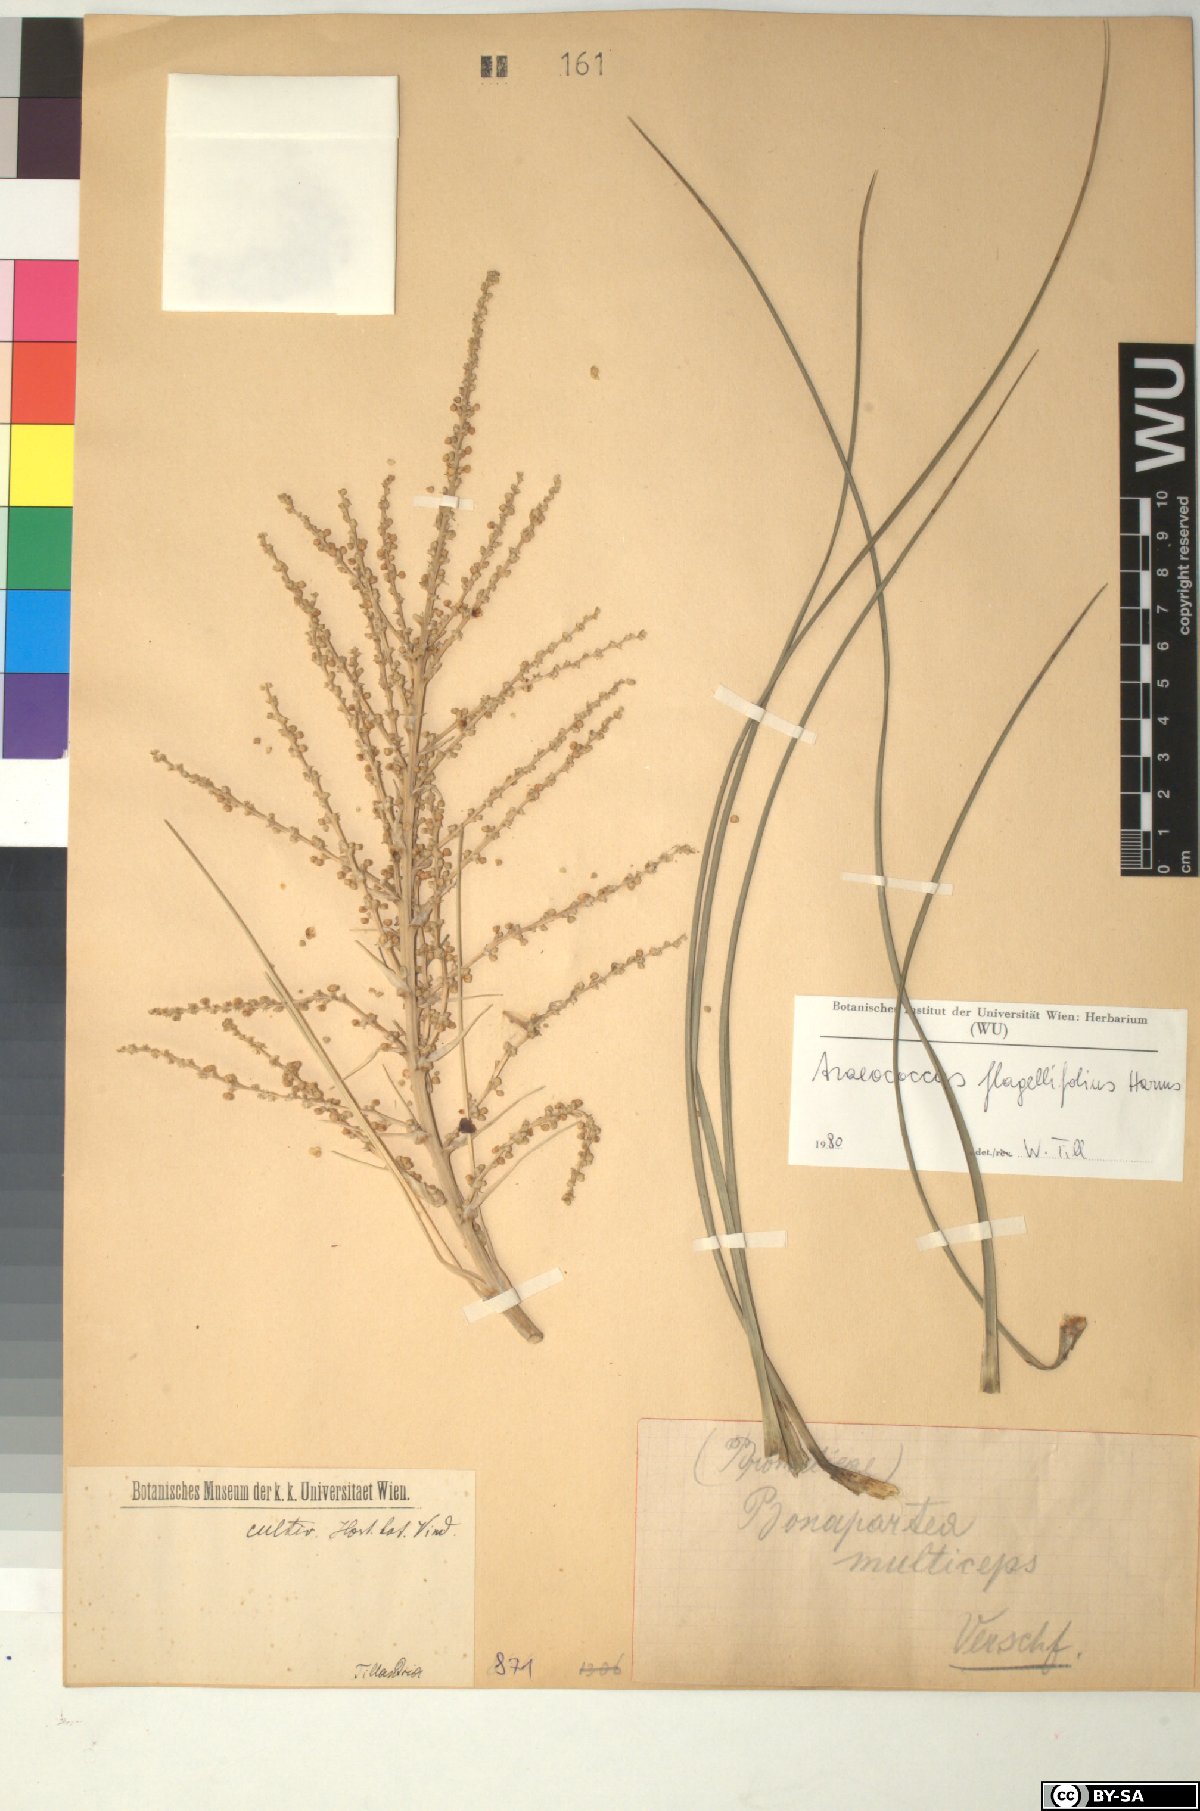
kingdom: Plantae
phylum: Tracheophyta
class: Liliopsida
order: Poales
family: Bromeliaceae
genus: Araeococcus
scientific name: Araeococcus flagellifolius
